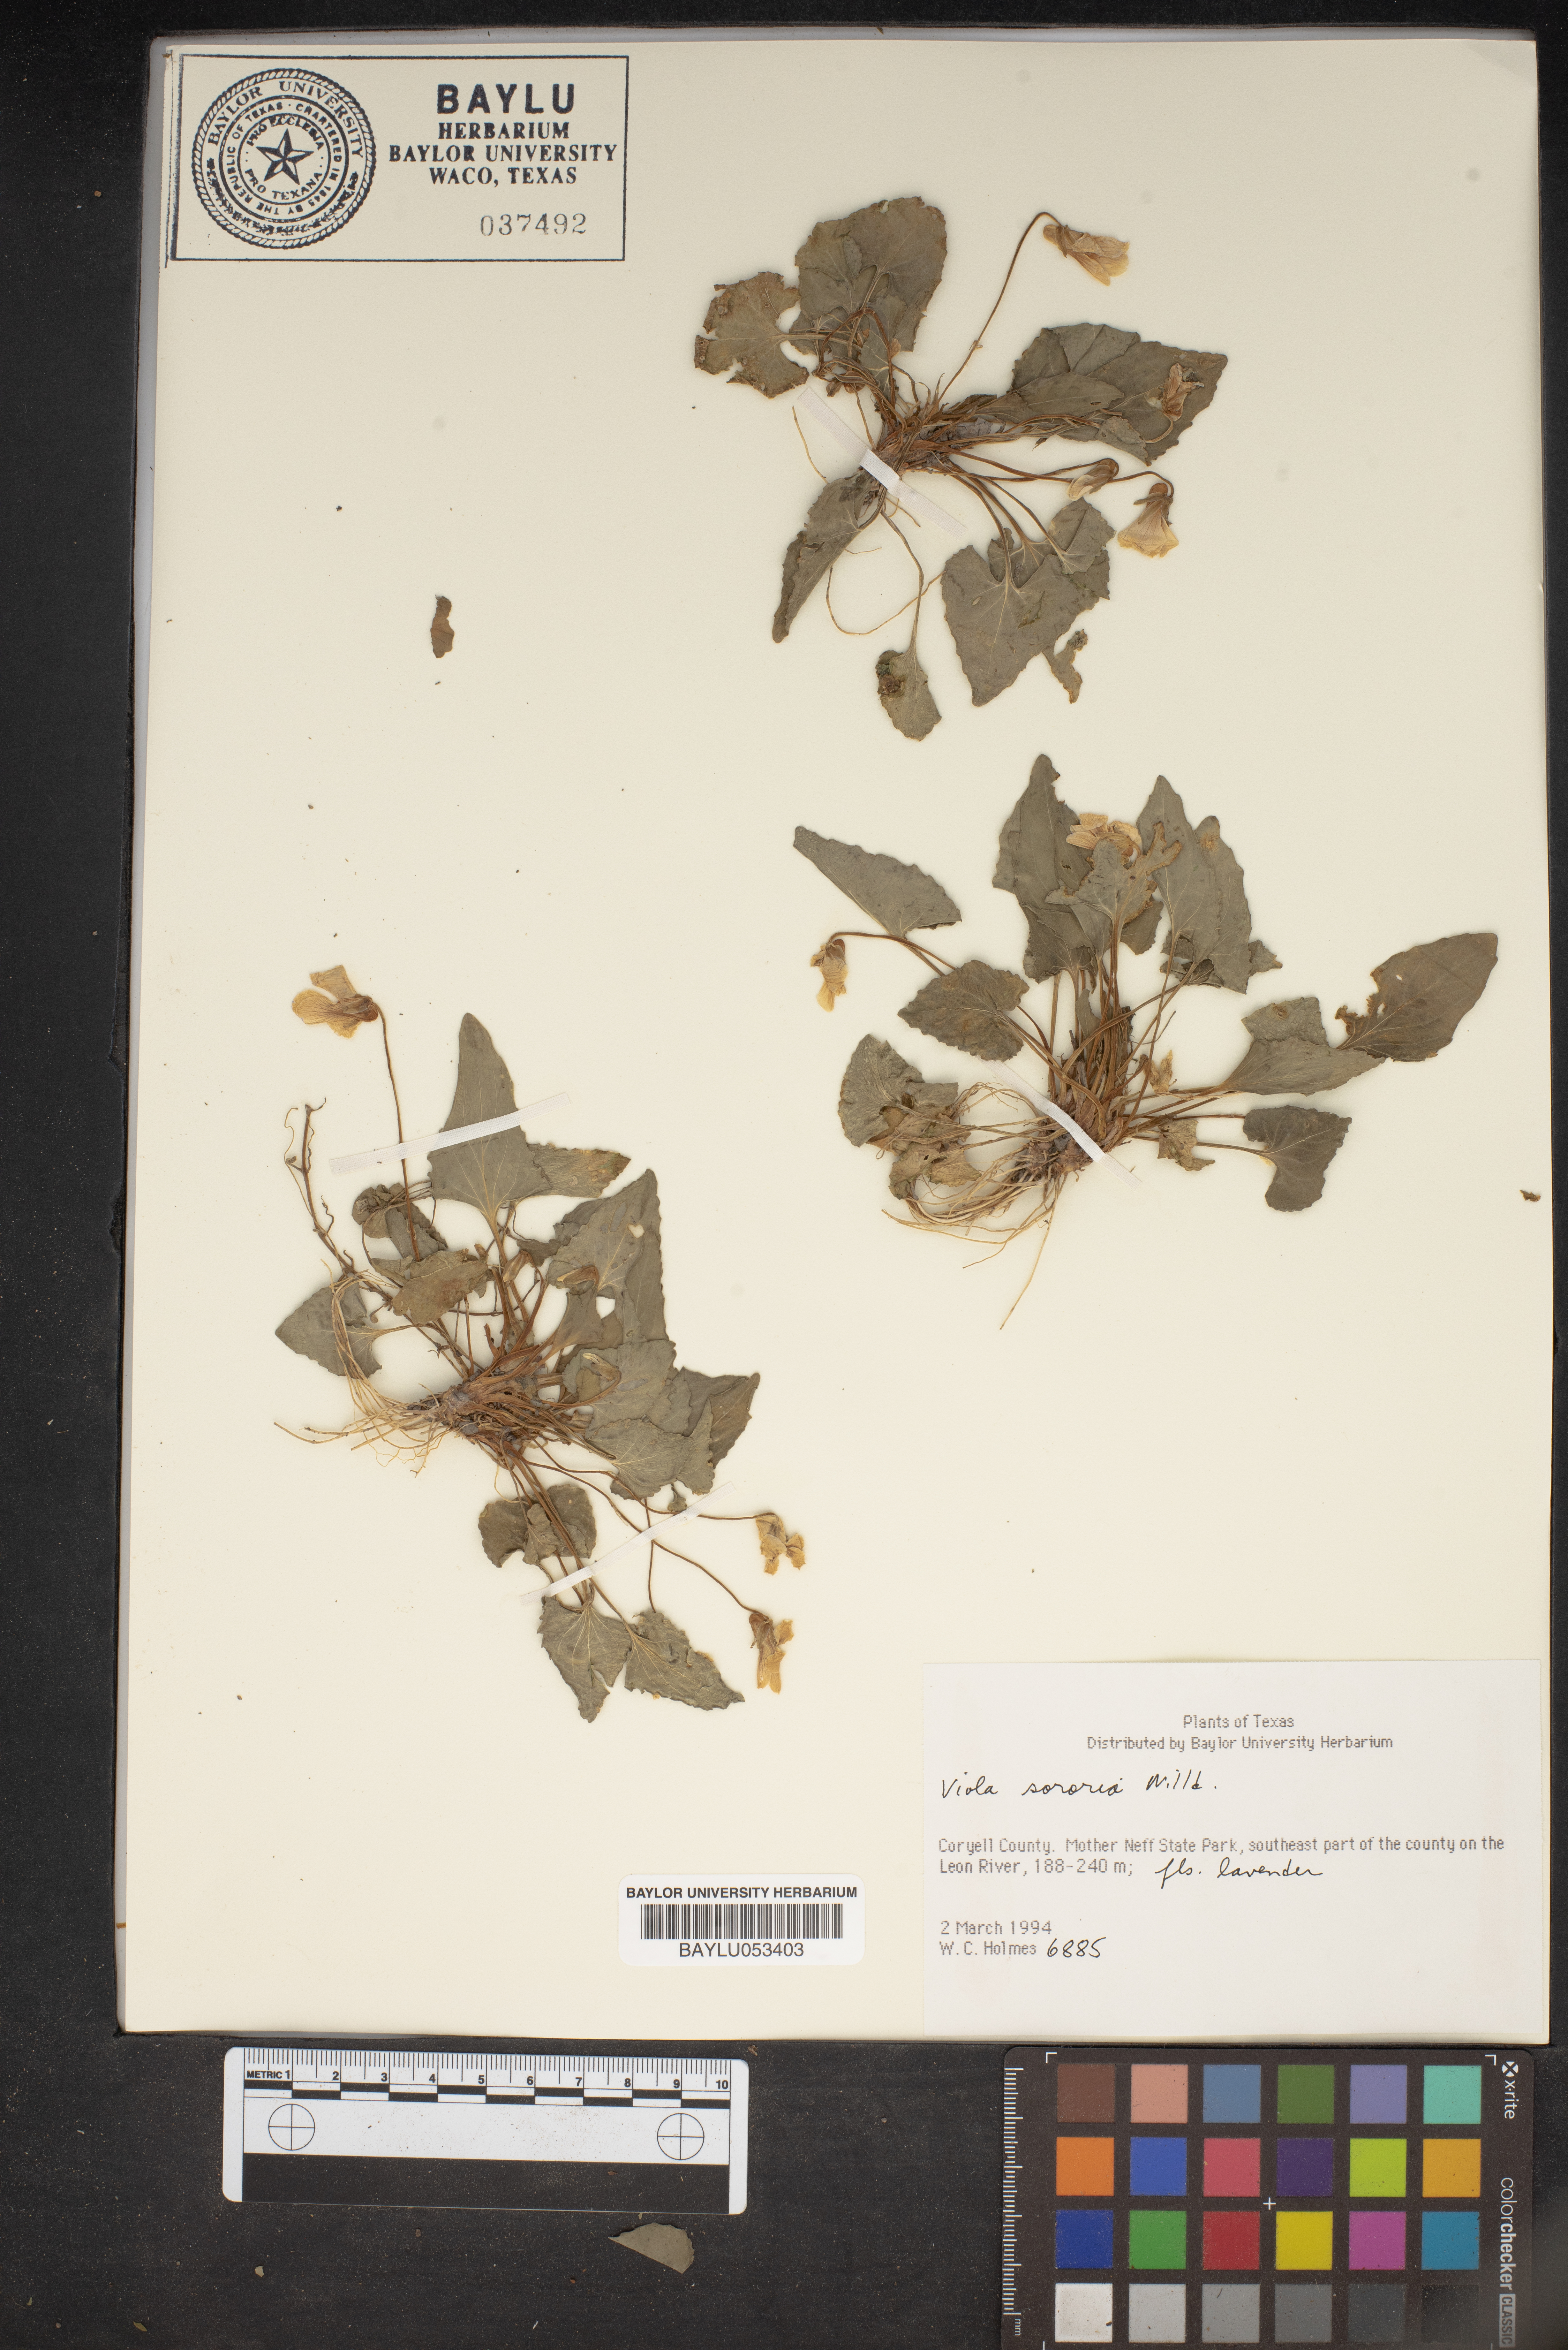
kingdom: Plantae
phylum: Tracheophyta
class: Magnoliopsida
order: Malpighiales
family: Violaceae
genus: Viola
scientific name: Viola sororia
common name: Dooryard violet
